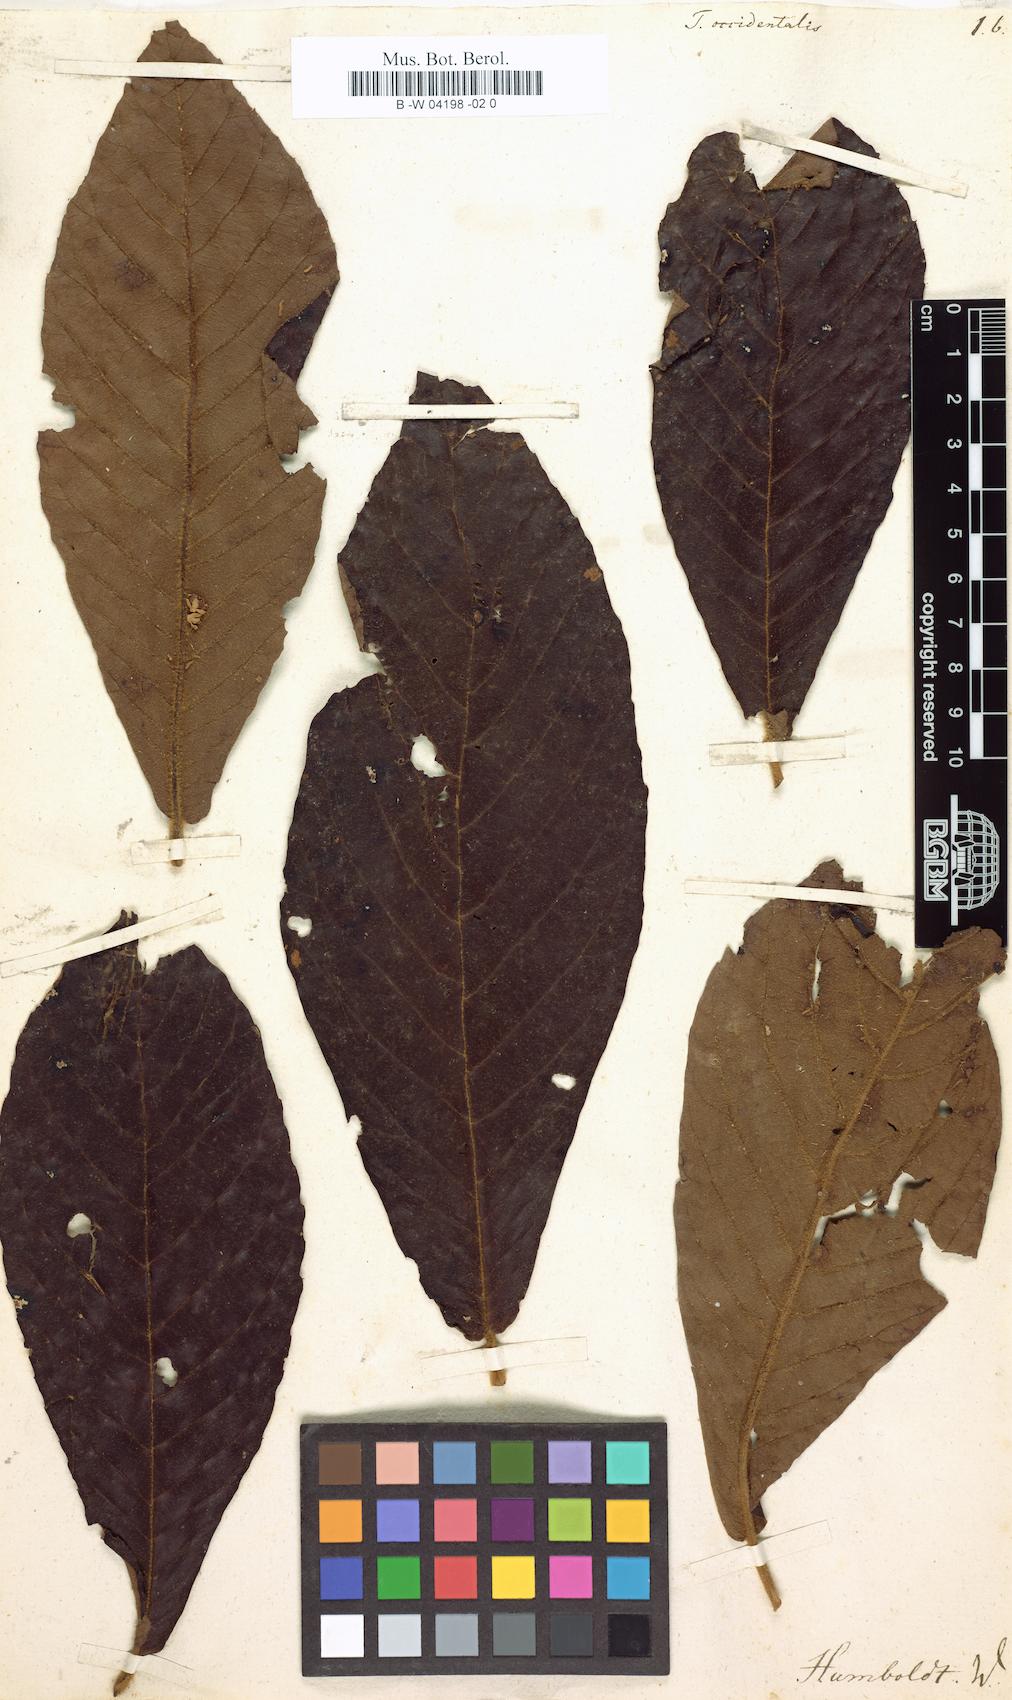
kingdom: Plantae
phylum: Tracheophyta
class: Magnoliopsida
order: Ericales
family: Clethraceae
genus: Clethra
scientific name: Clethra occidentalis
